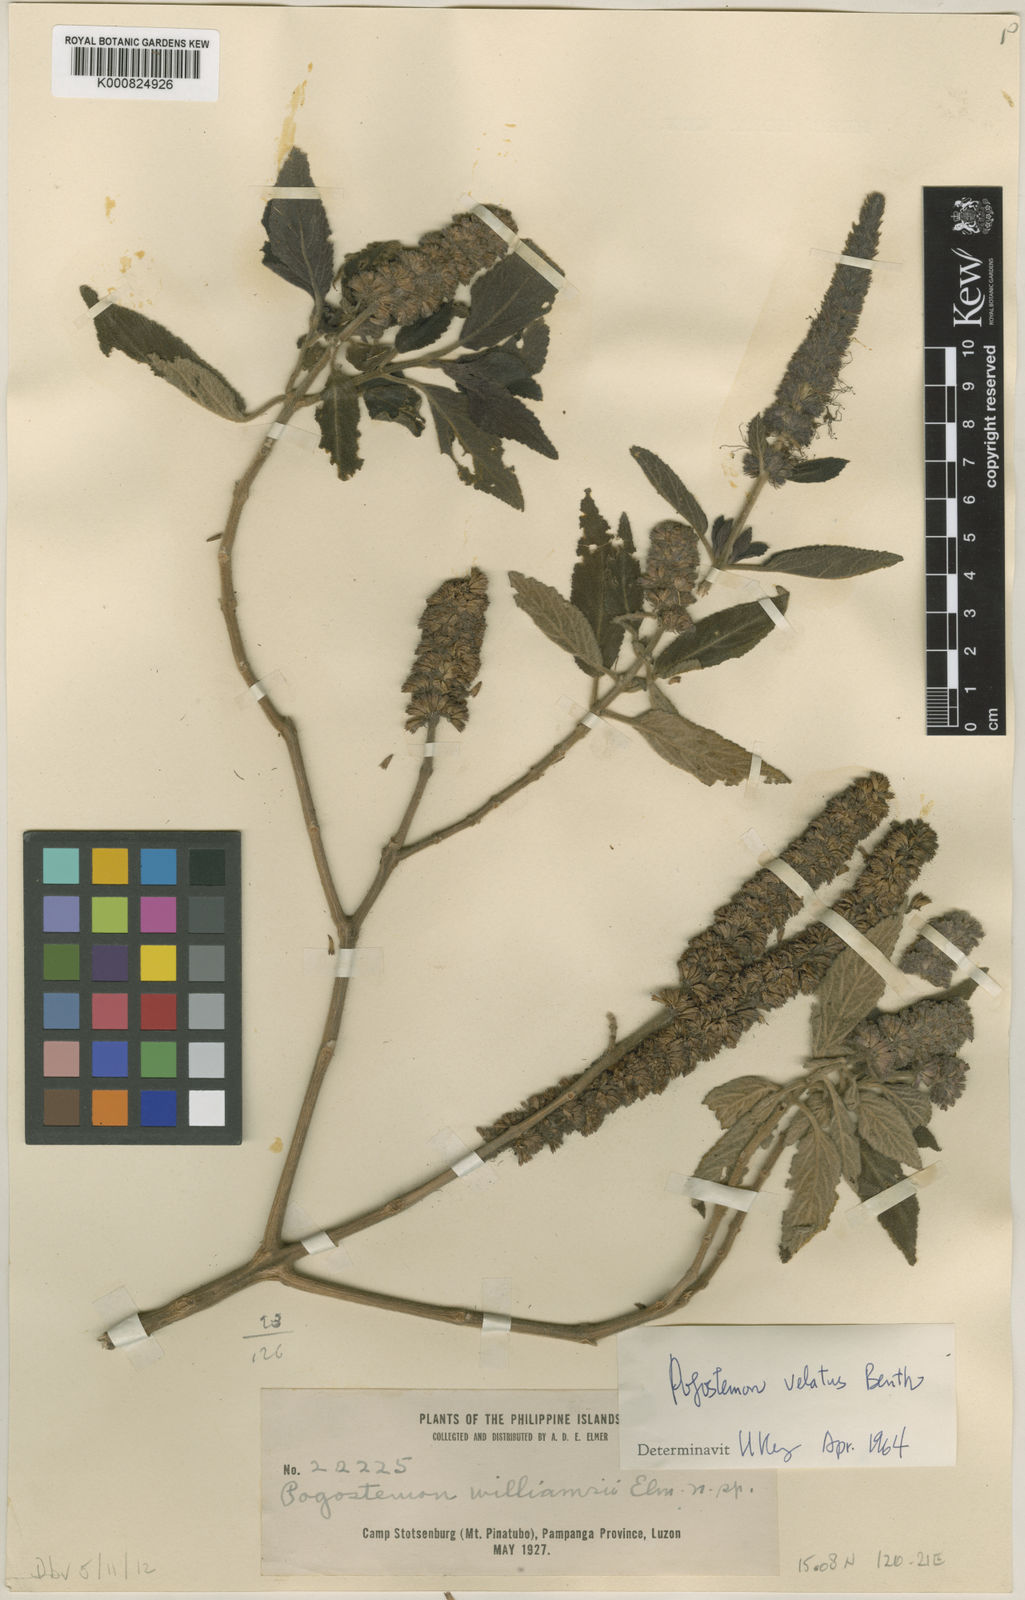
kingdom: Plantae
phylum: Tracheophyta
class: Magnoliopsida
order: Lamiales
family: Lamiaceae
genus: Pogostemon
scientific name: Pogostemon velatus
